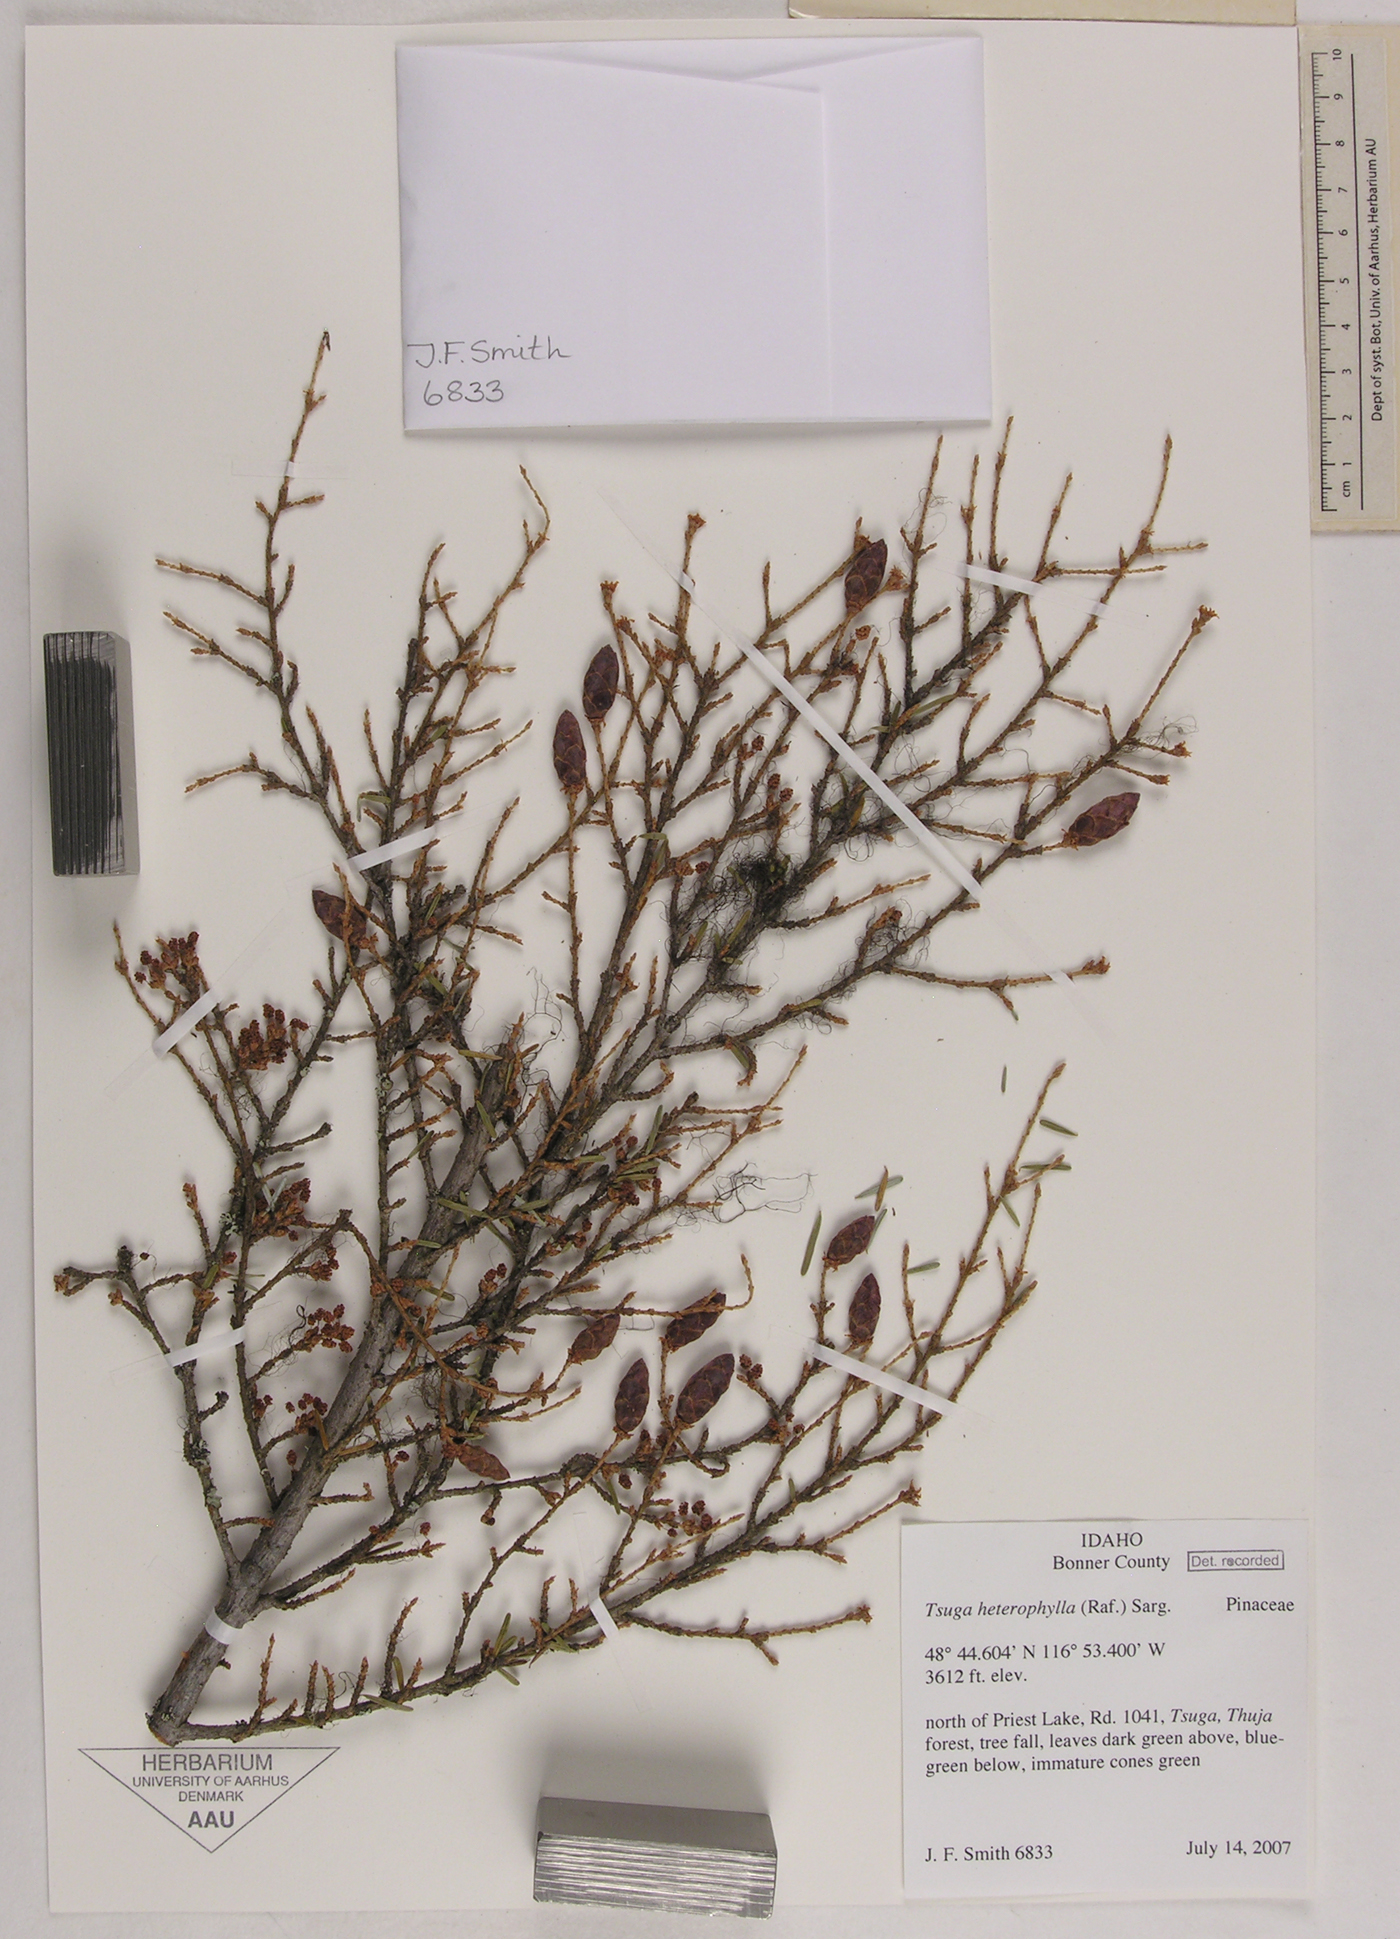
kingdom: Plantae
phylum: Tracheophyta
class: Pinopsida
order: Pinales
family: Pinaceae
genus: Tsuga
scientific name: Tsuga heterophylla
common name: Western hemlock
